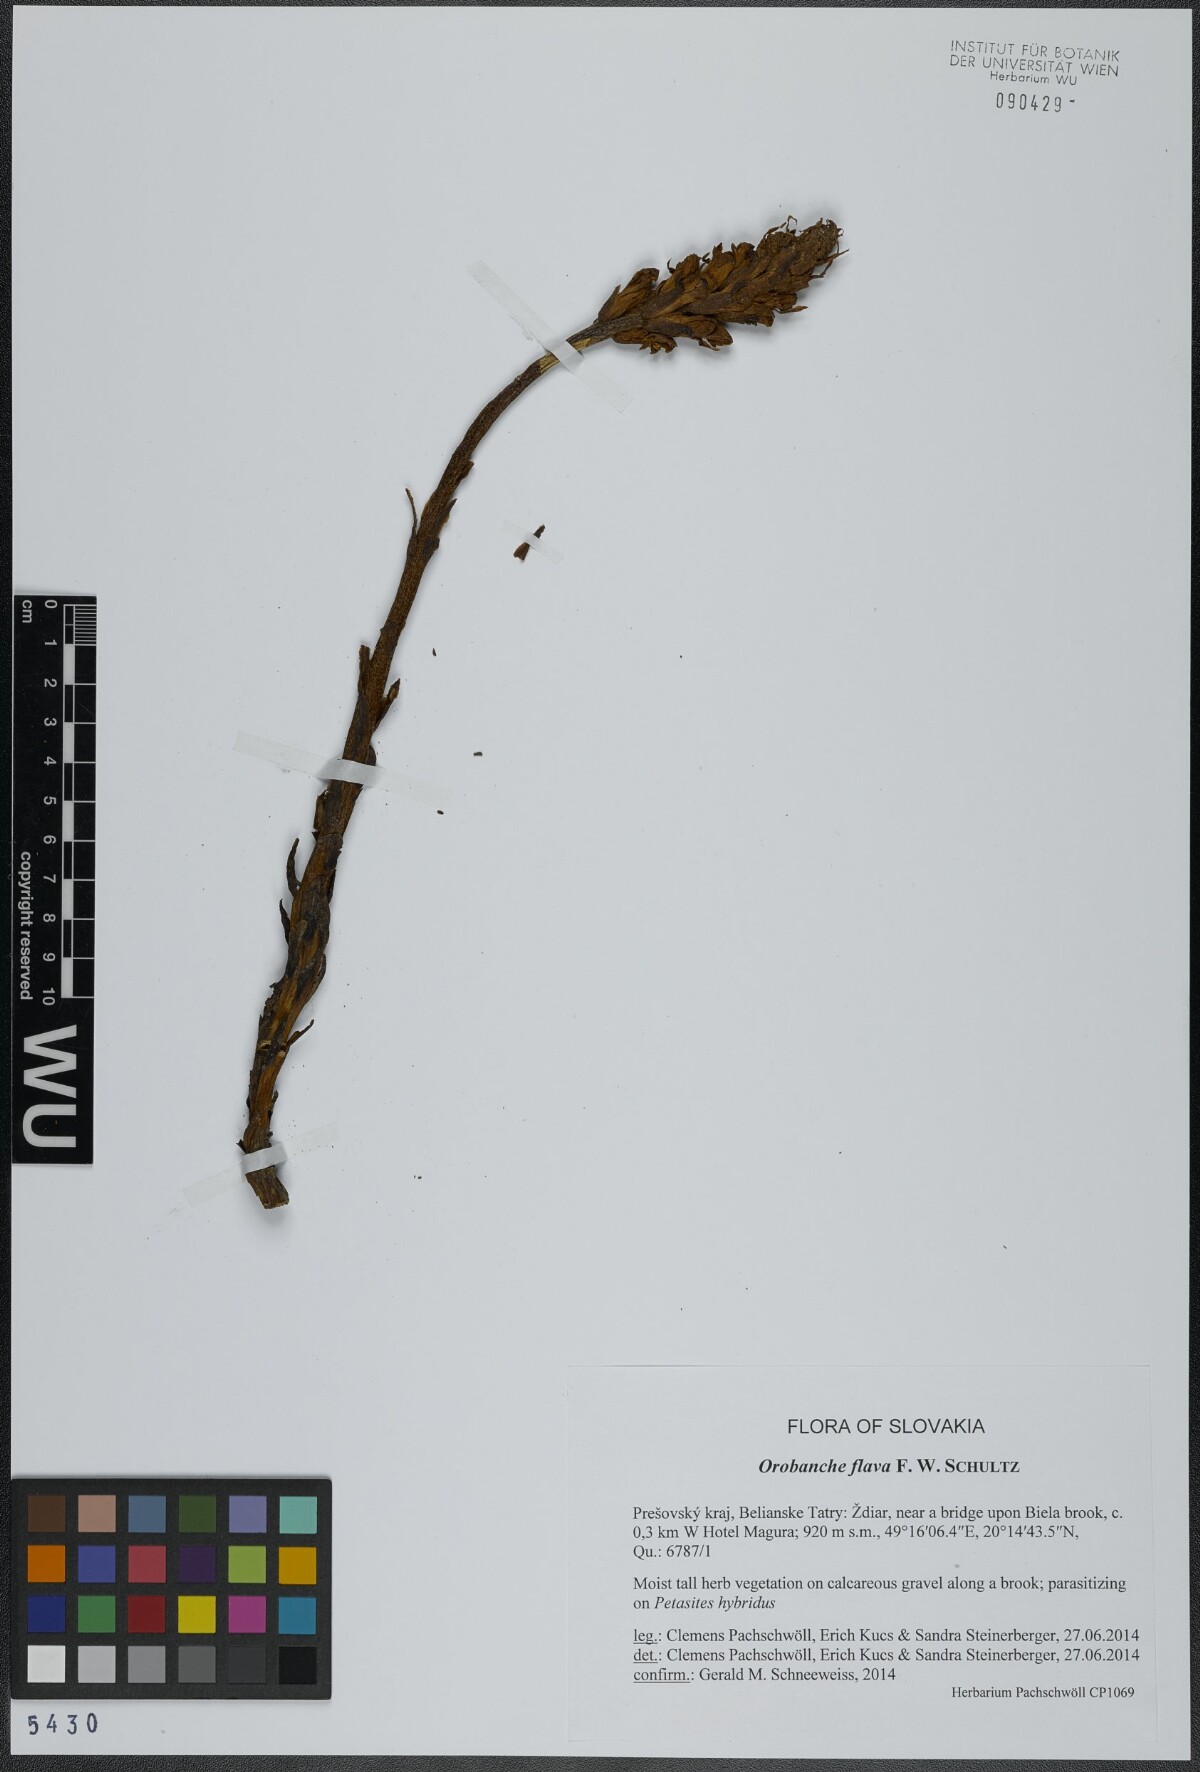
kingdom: Plantae
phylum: Tracheophyta
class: Magnoliopsida
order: Lamiales
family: Orobanchaceae
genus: Orobanche
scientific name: Orobanche flava
